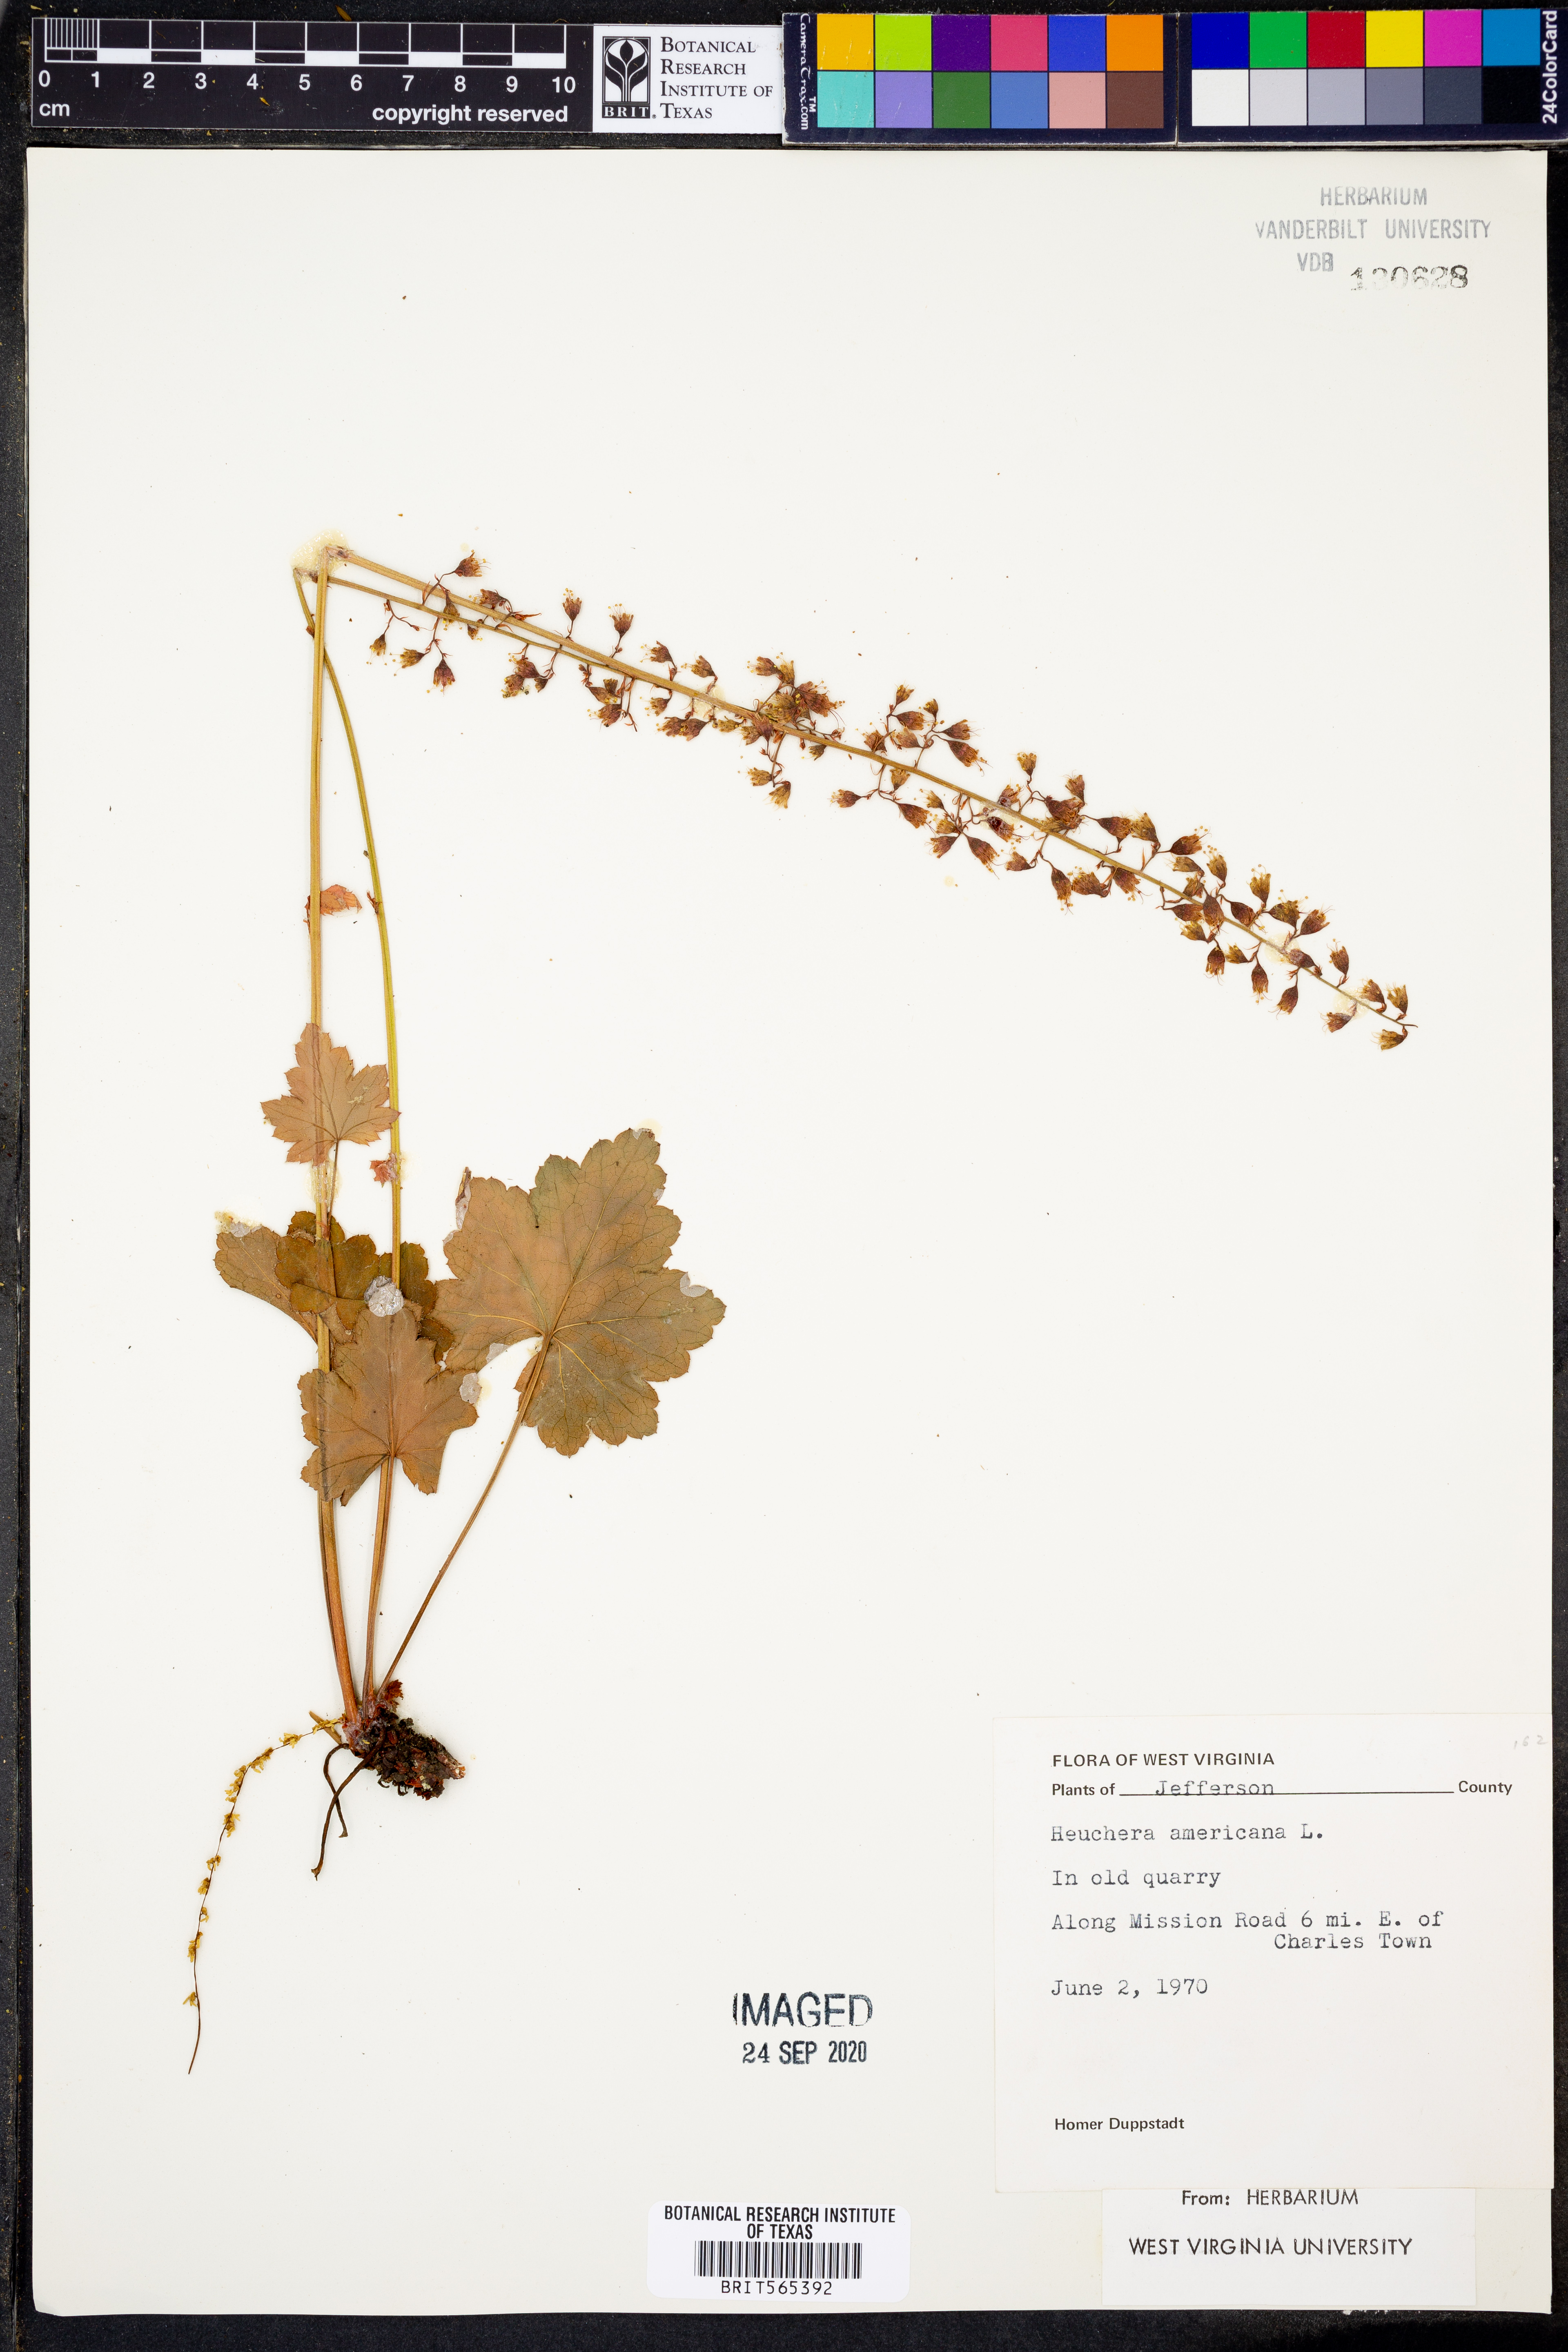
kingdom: Plantae
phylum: Tracheophyta
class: Magnoliopsida
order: Saxifragales
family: Saxifragaceae
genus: Heuchera
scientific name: Heuchera americana
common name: Alumroot
